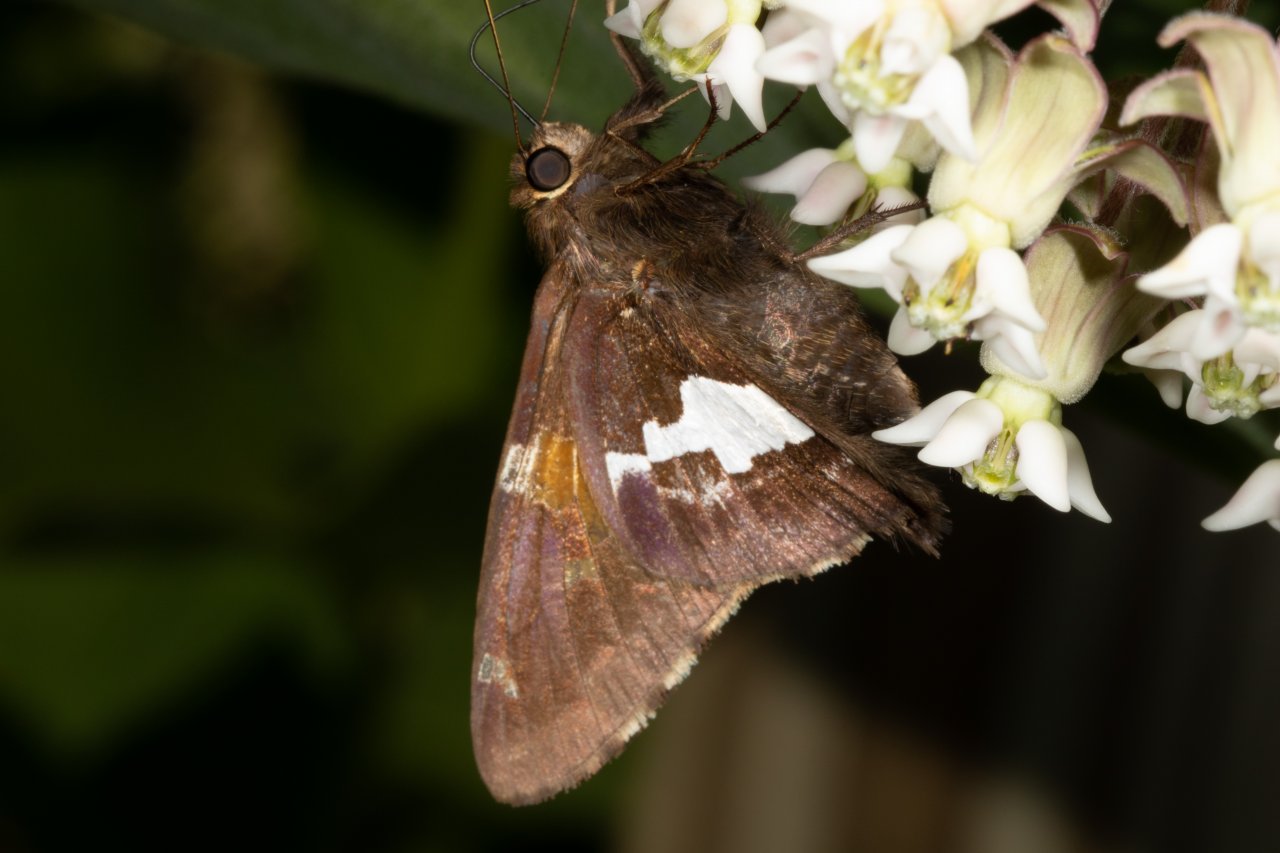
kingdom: Animalia
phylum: Arthropoda
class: Insecta
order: Lepidoptera
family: Hesperiidae
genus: Epargyreus
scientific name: Epargyreus clarus
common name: Silver-spotted Skipper
